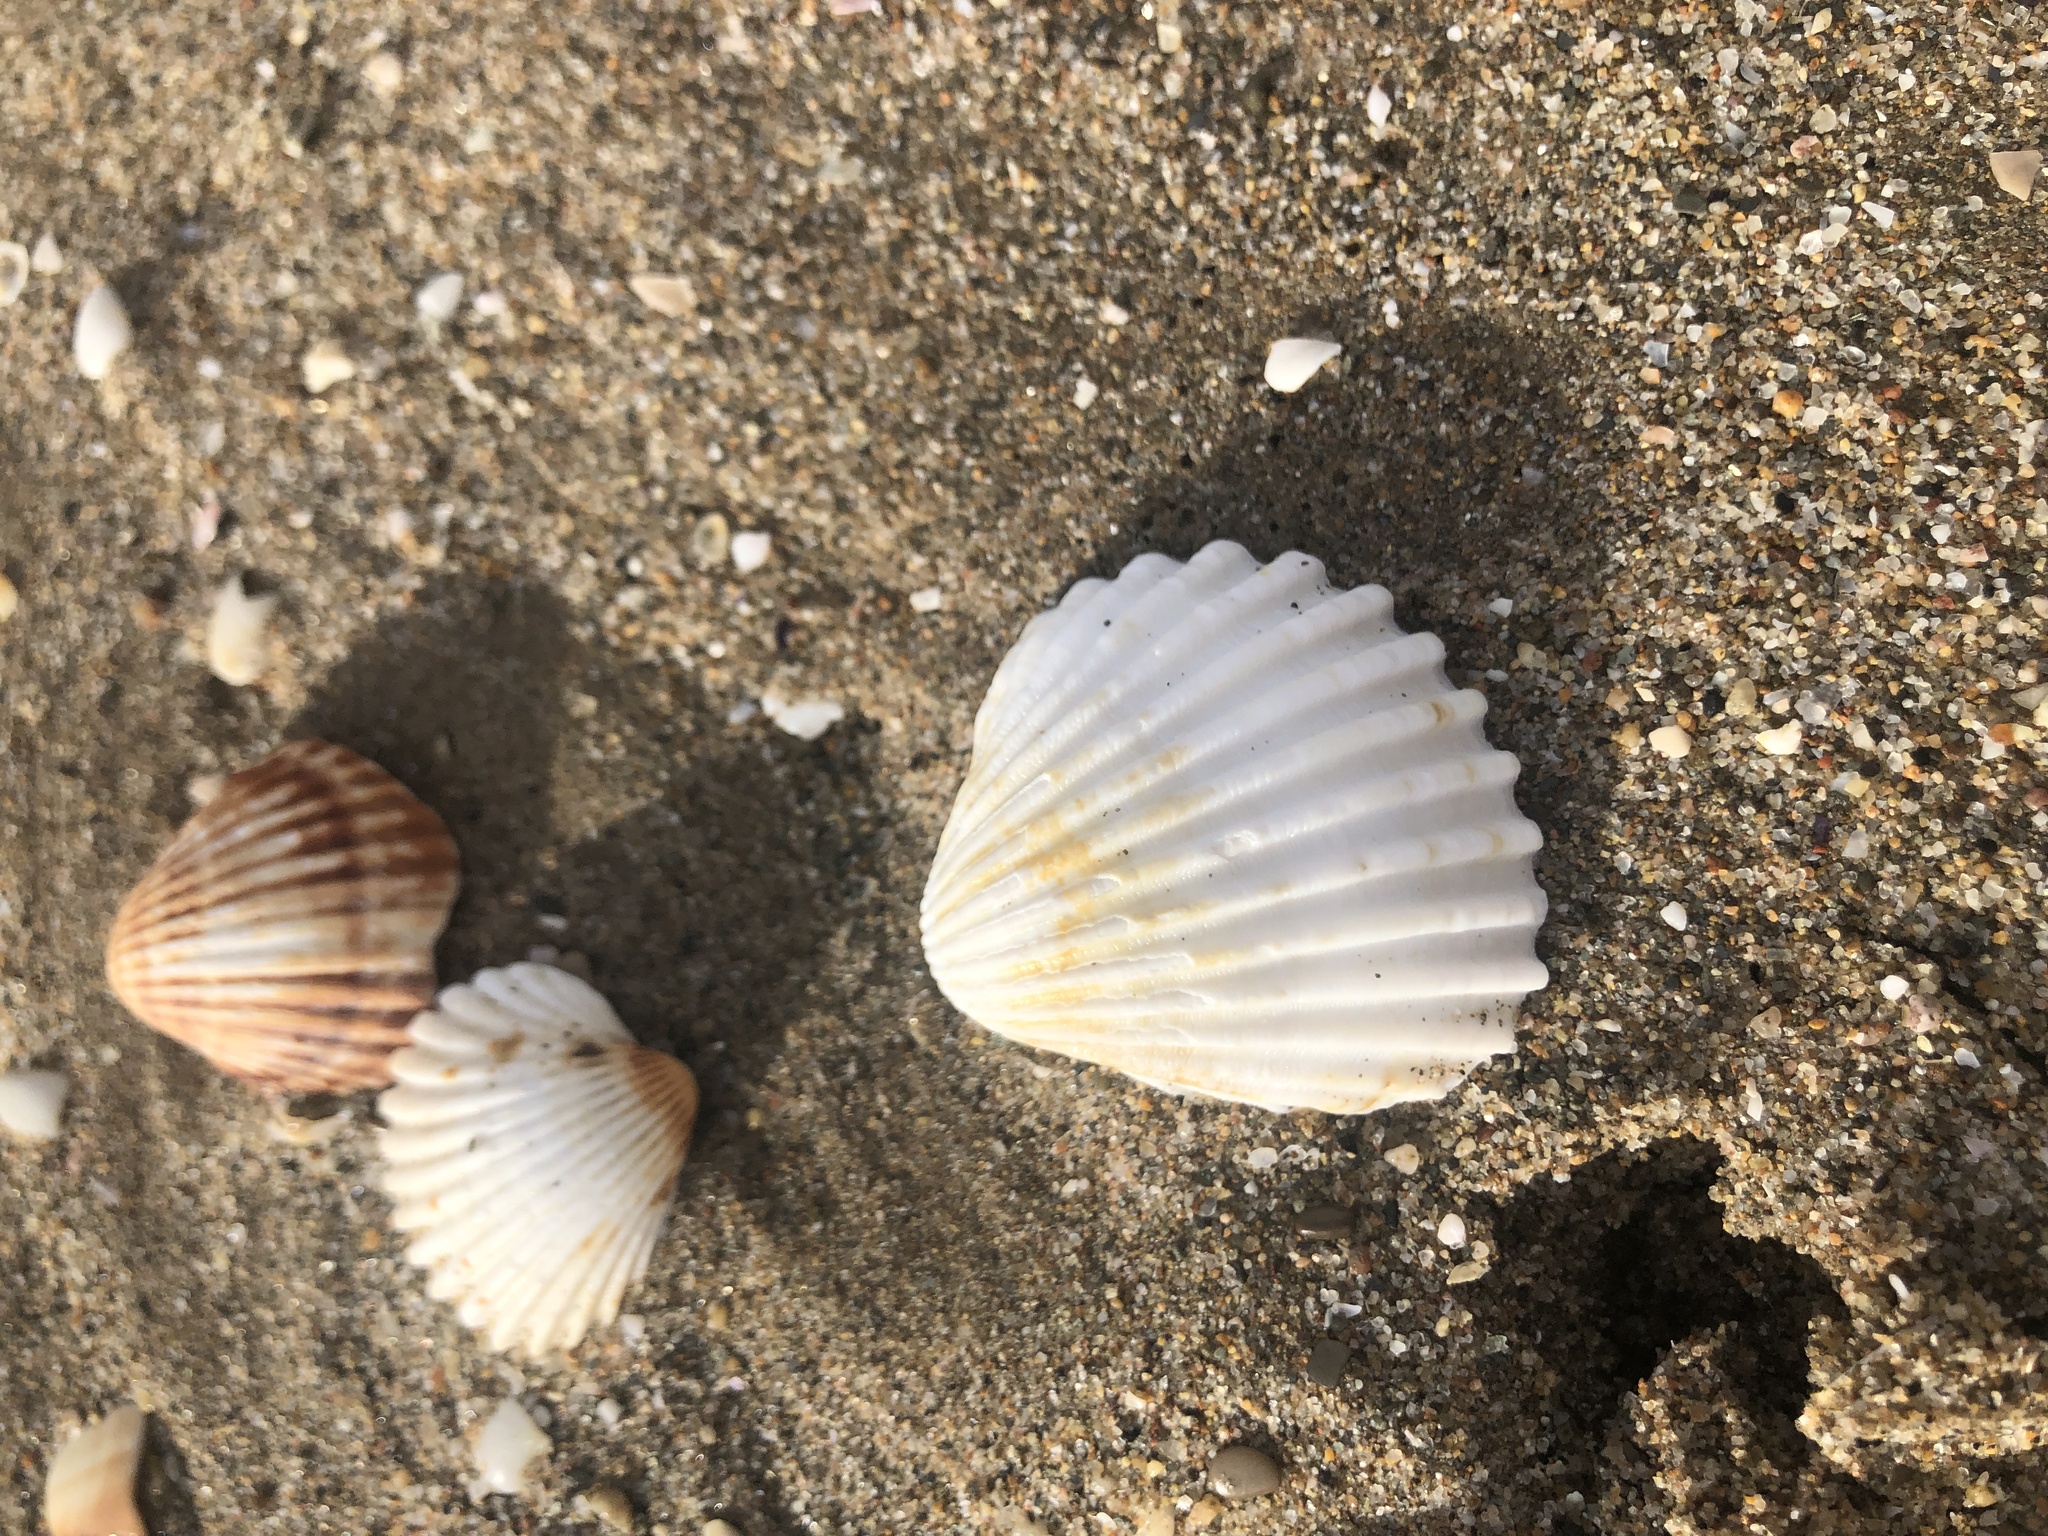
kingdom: Animalia
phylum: Mollusca
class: Bivalvia
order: Cardiida
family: Cardiidae
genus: Acanthocardia
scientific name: Acanthocardia tuberculata
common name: Rough cockle
